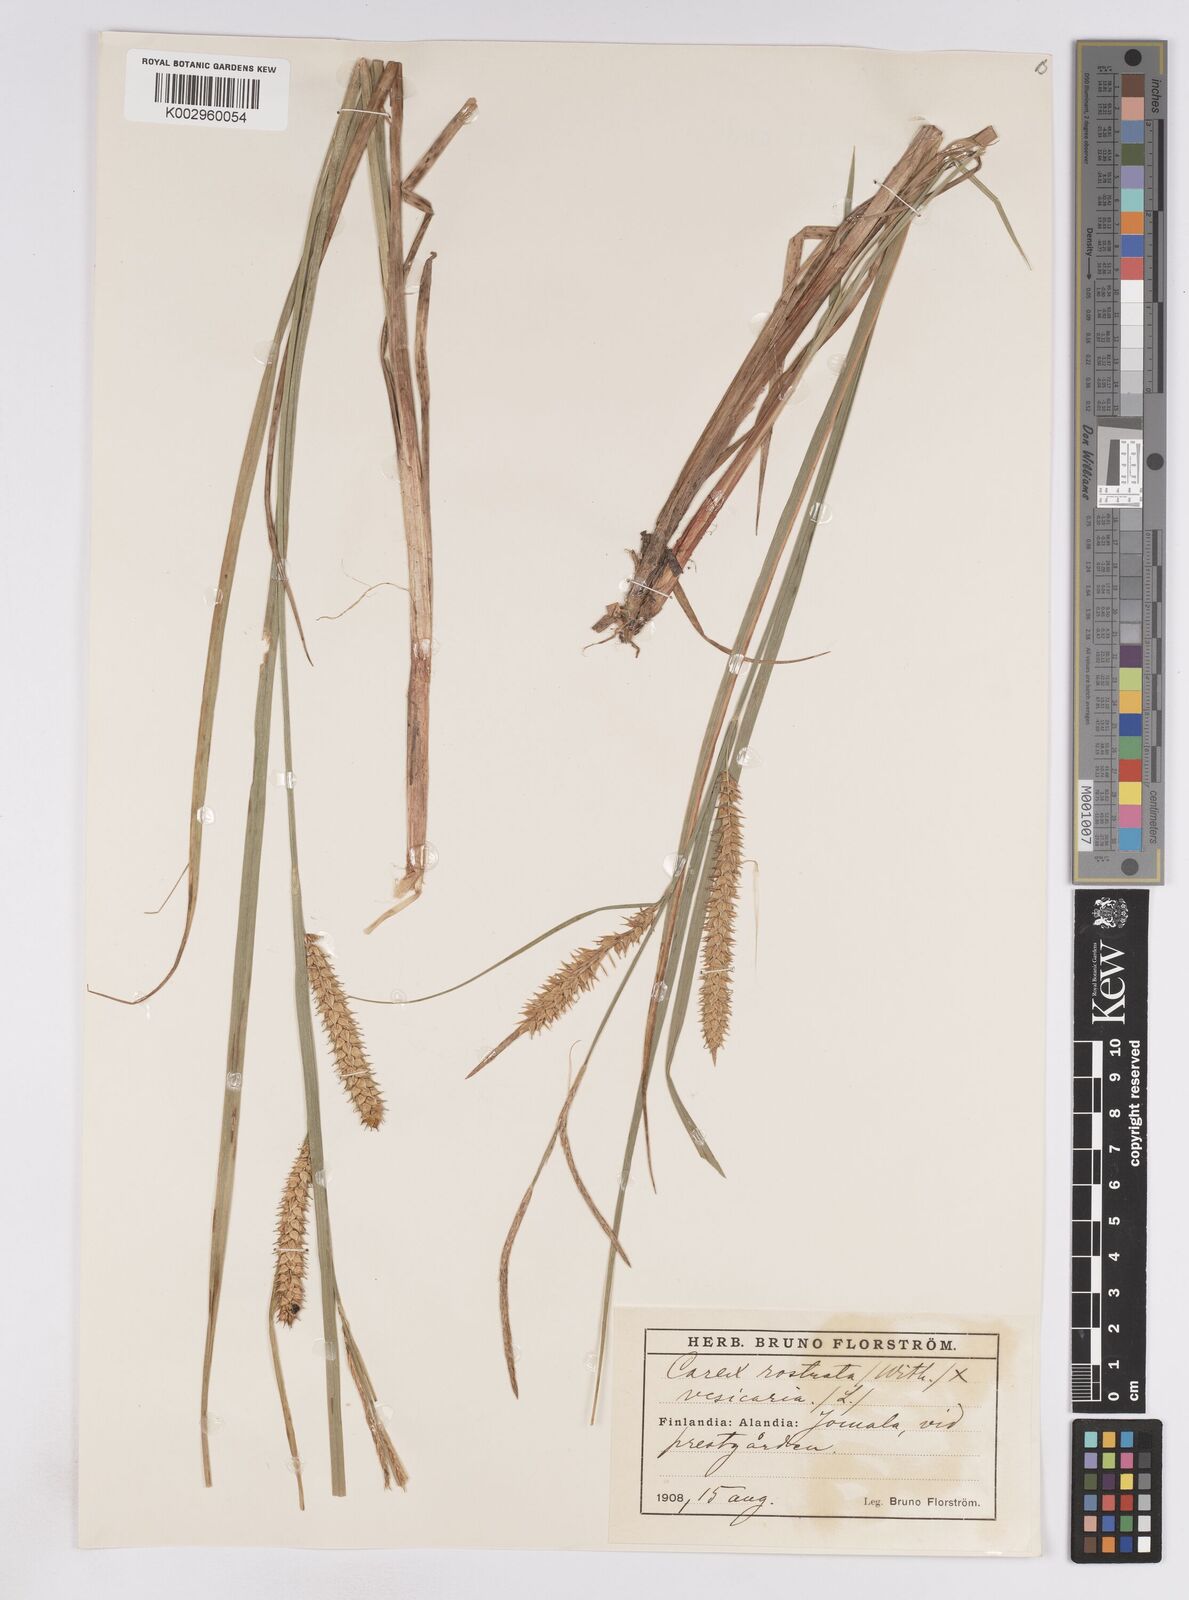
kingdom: Plantae
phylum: Tracheophyta
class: Liliopsida
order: Poales
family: Cyperaceae
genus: Carex
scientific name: Carex
